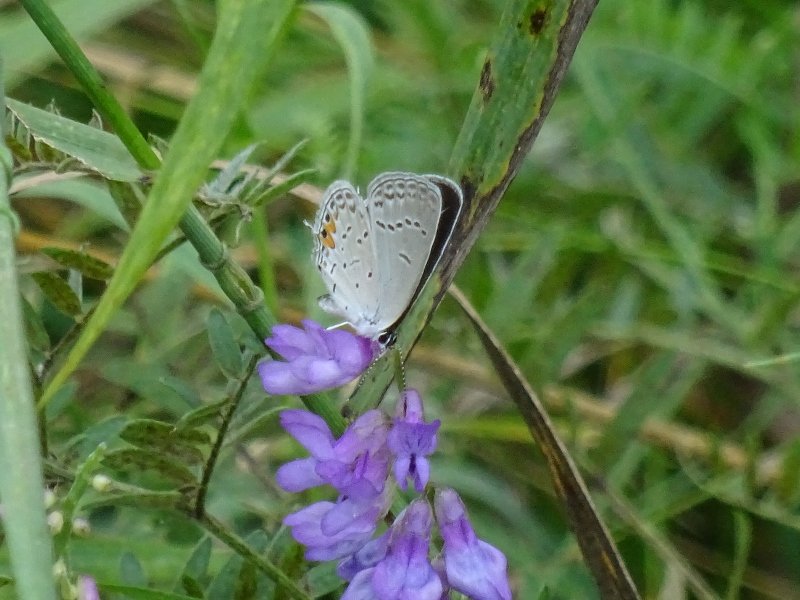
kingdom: Animalia
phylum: Arthropoda
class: Insecta
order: Lepidoptera
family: Lycaenidae
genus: Elkalyce
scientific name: Elkalyce comyntas
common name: Eastern Tailed-Blue
